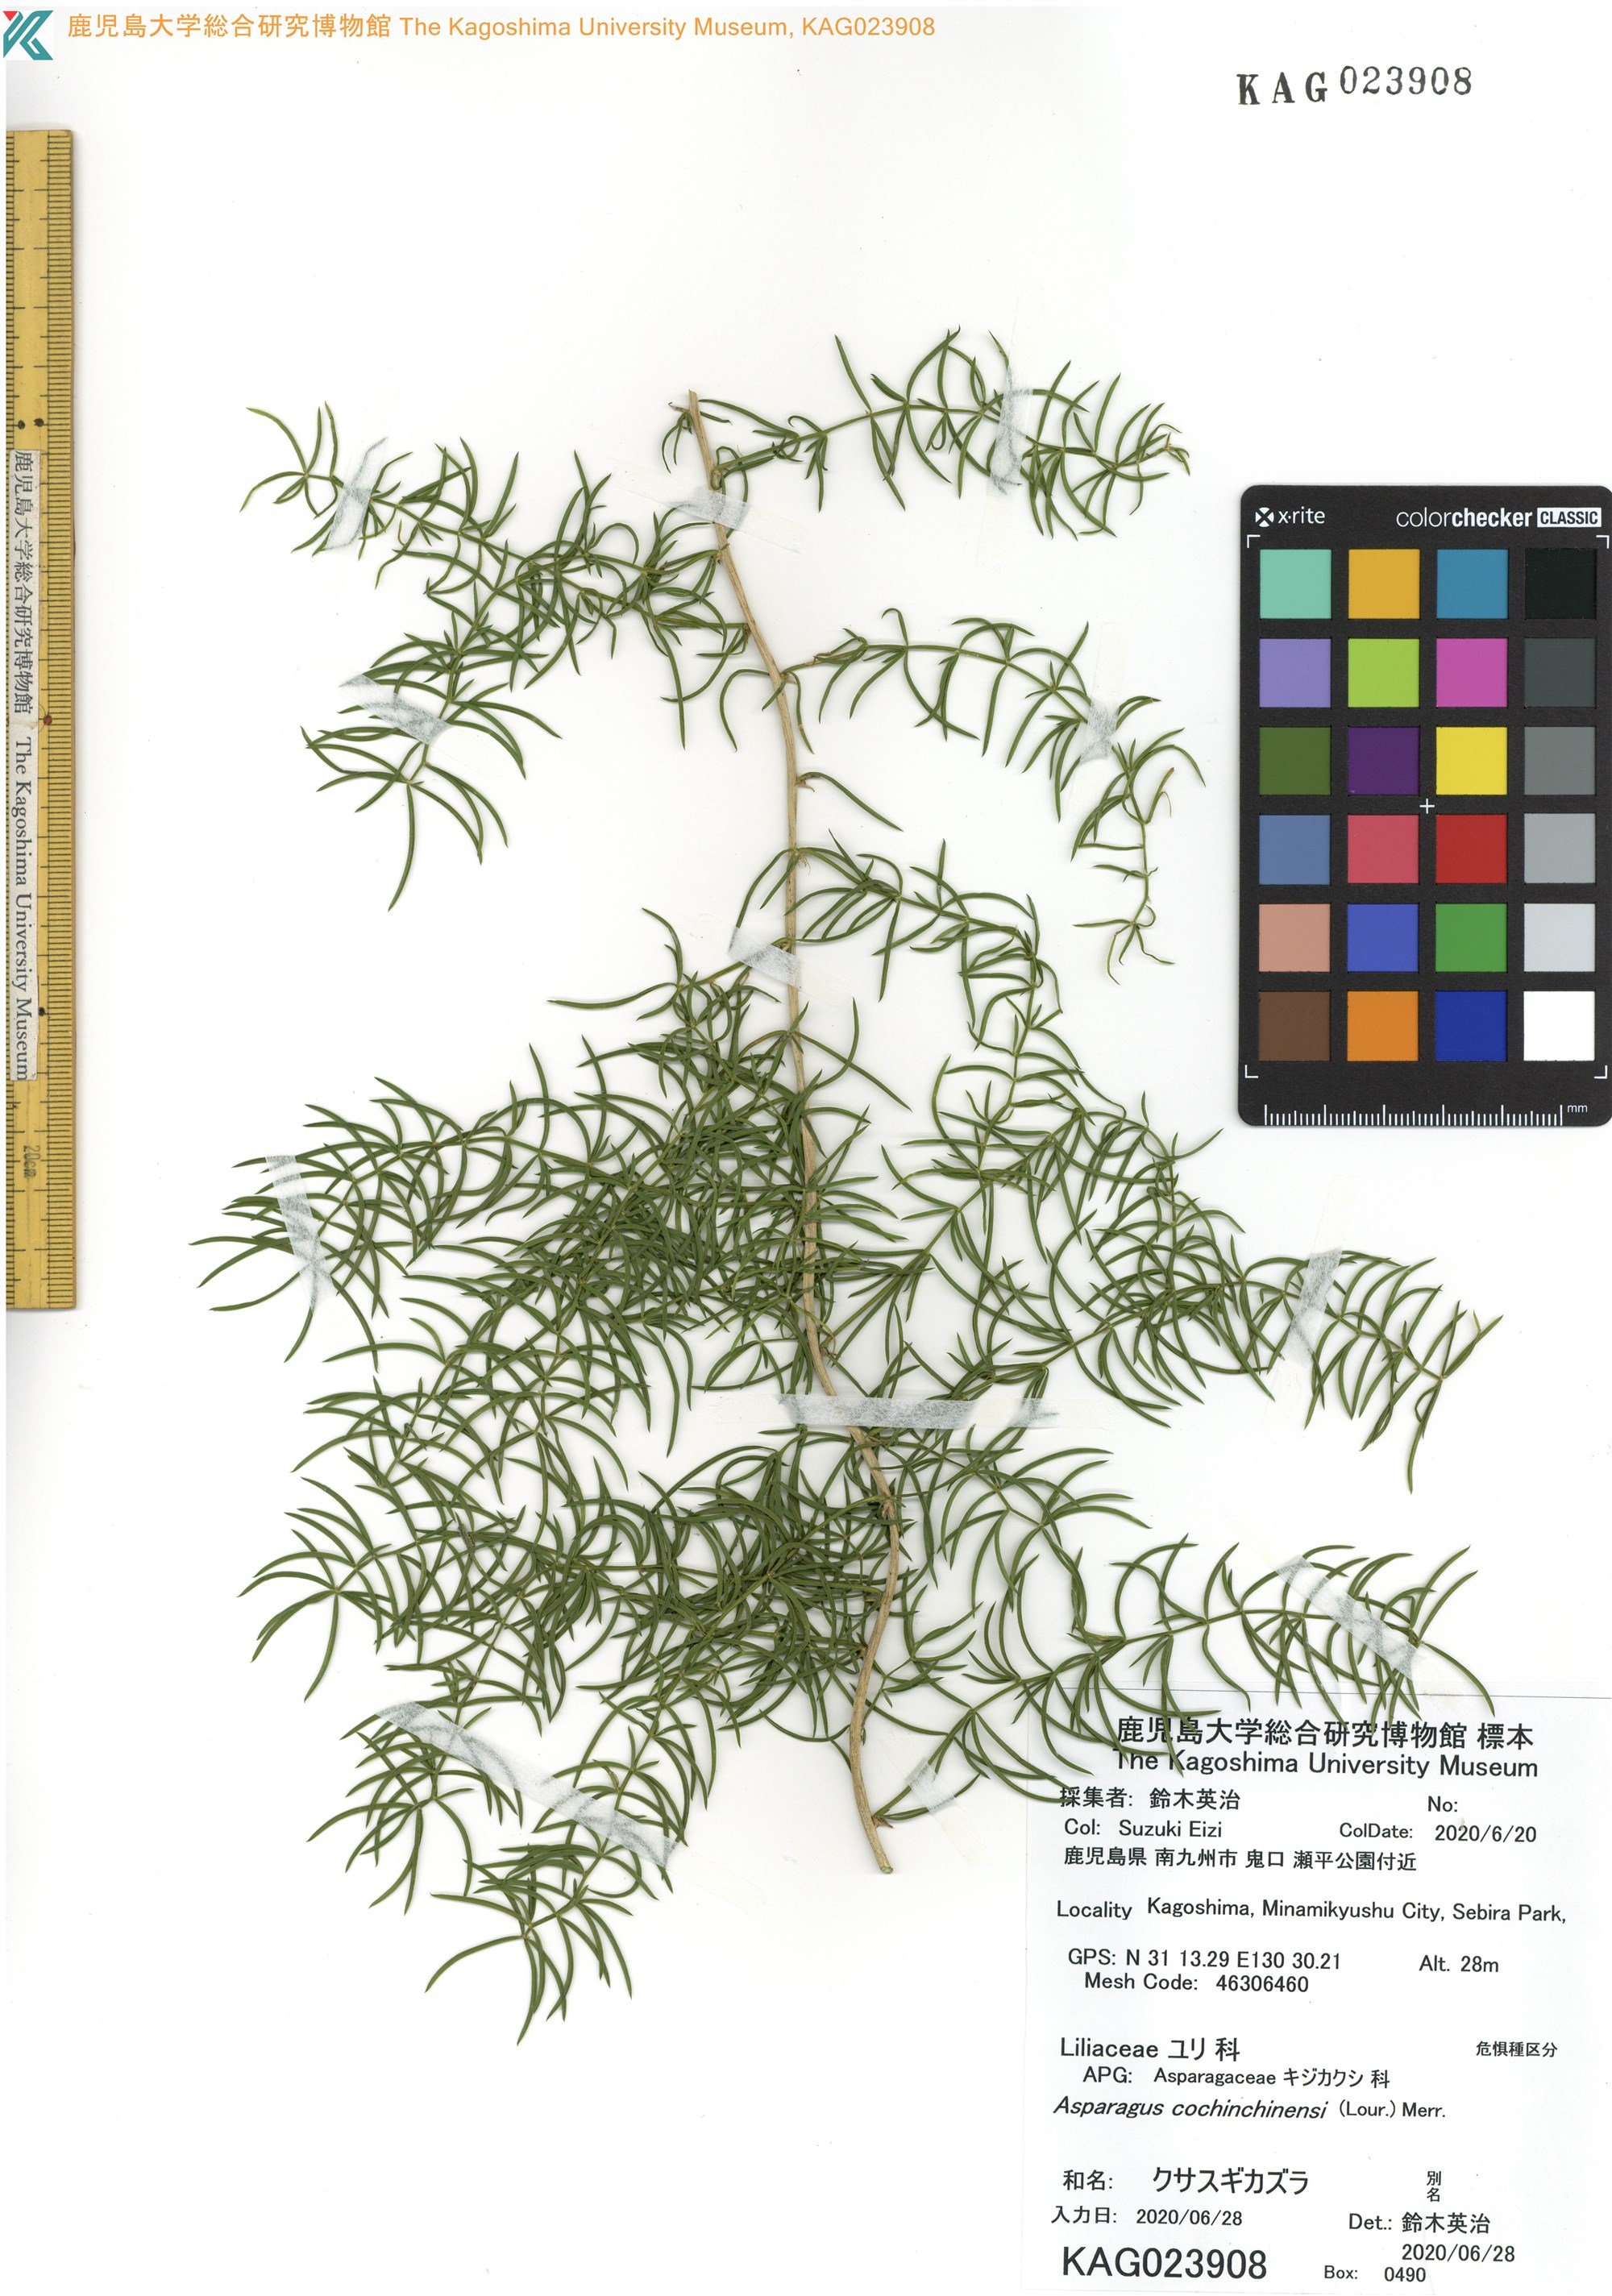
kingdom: Plantae
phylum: Tracheophyta
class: Liliopsida
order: Asparagales
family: Asparagaceae
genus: Asparagus
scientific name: Asparagus cochinchinensis
